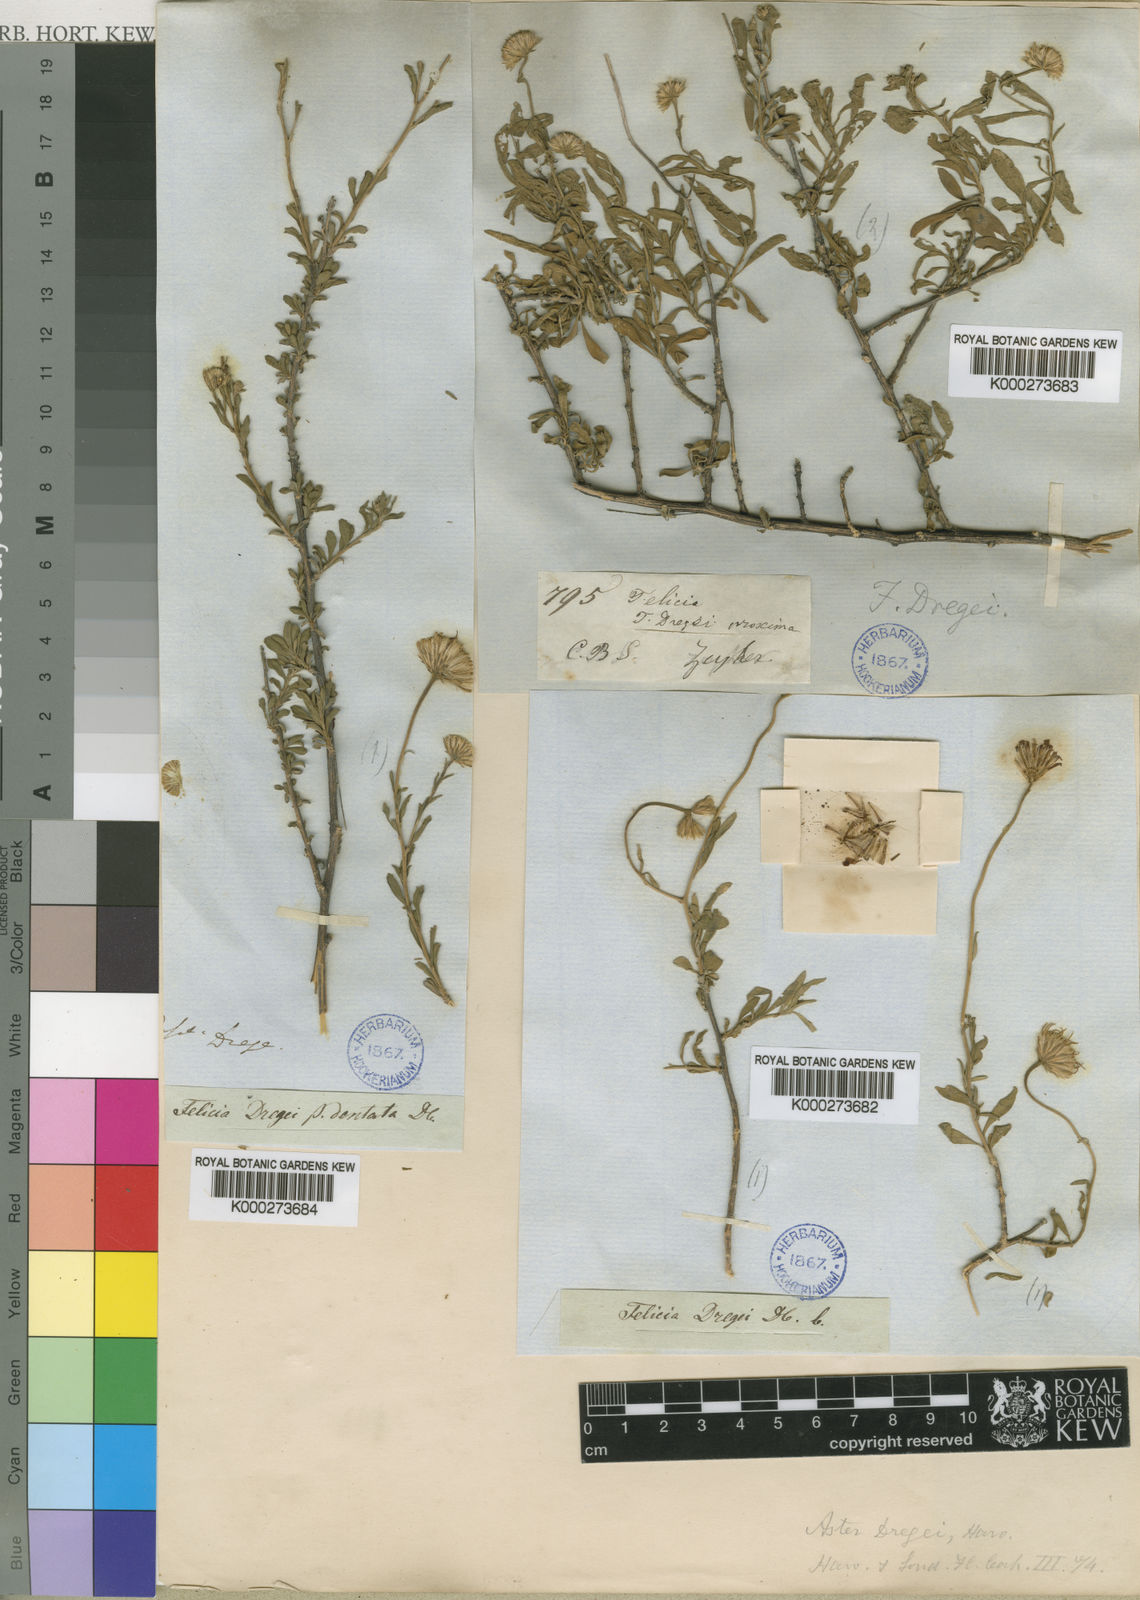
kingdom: Plantae
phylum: Tracheophyta
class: Magnoliopsida
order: Asterales
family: Asteraceae
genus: Felicia
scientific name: Felicia dregei
